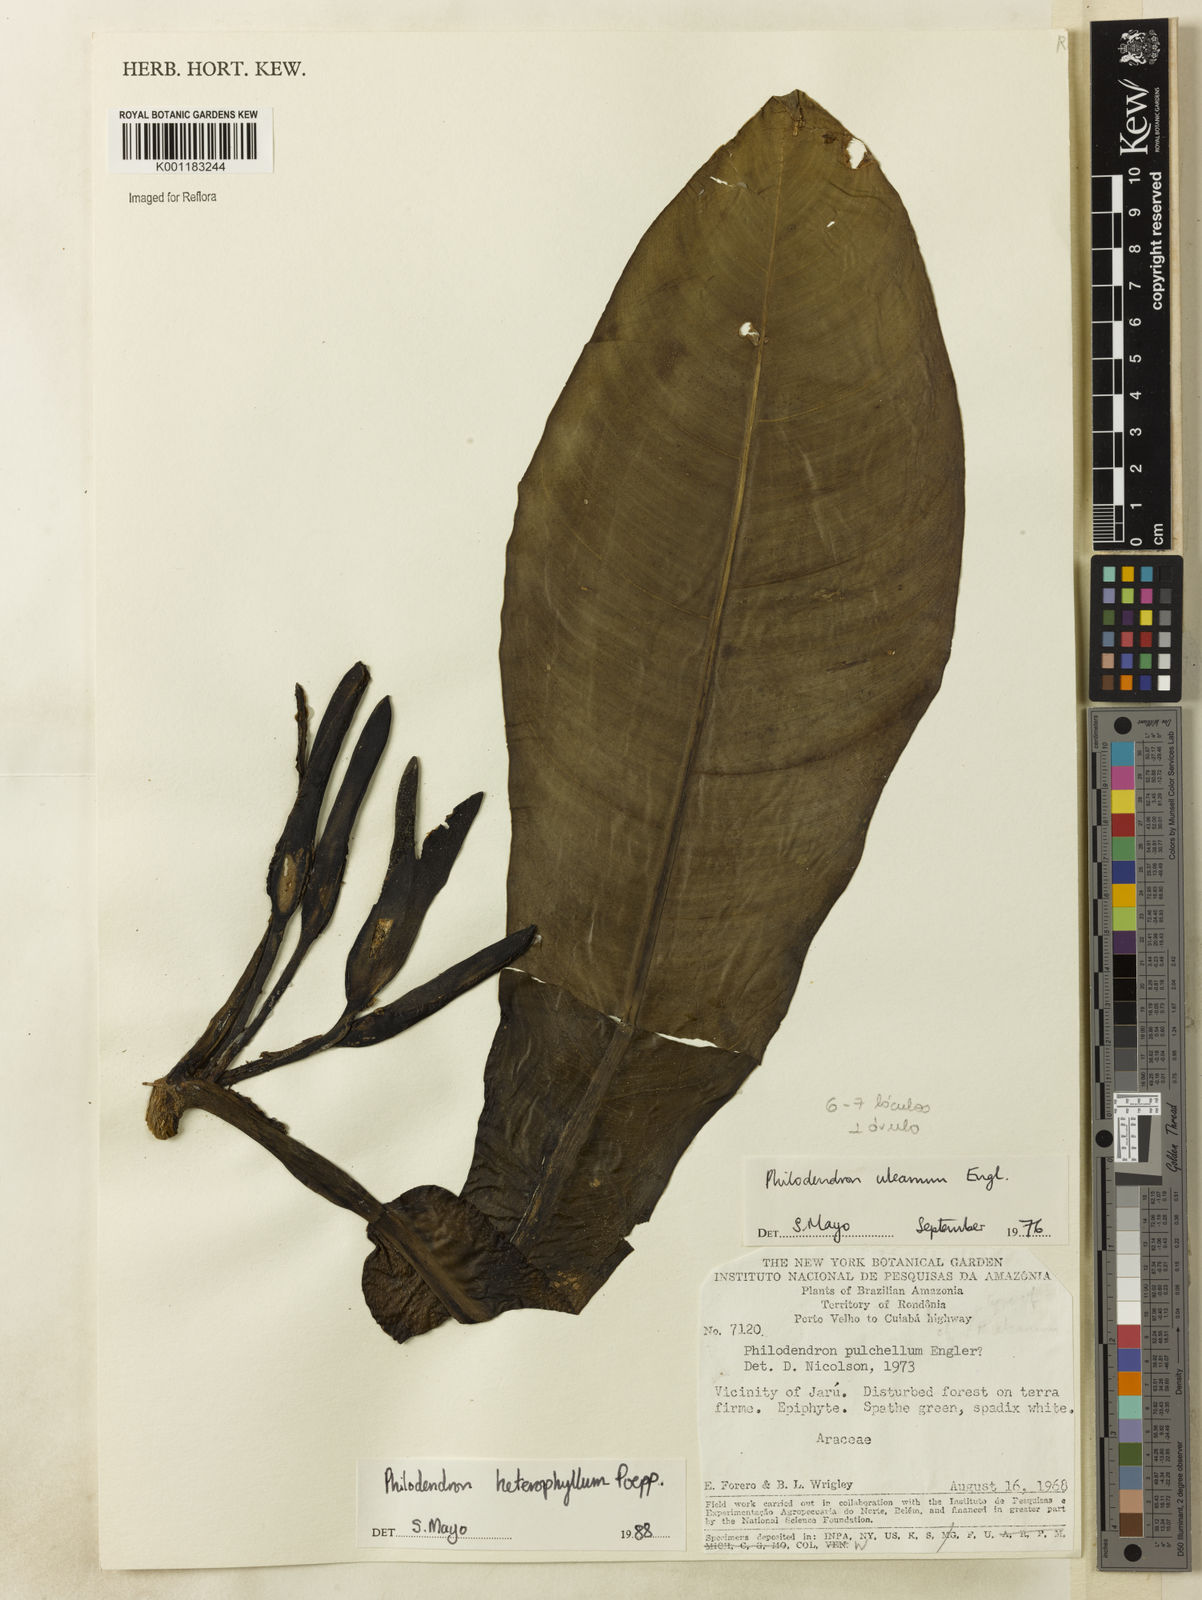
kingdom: Plantae
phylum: Tracheophyta
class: Liliopsida
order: Alismatales
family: Araceae
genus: Philodendron
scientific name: Philodendron heterophyllum
